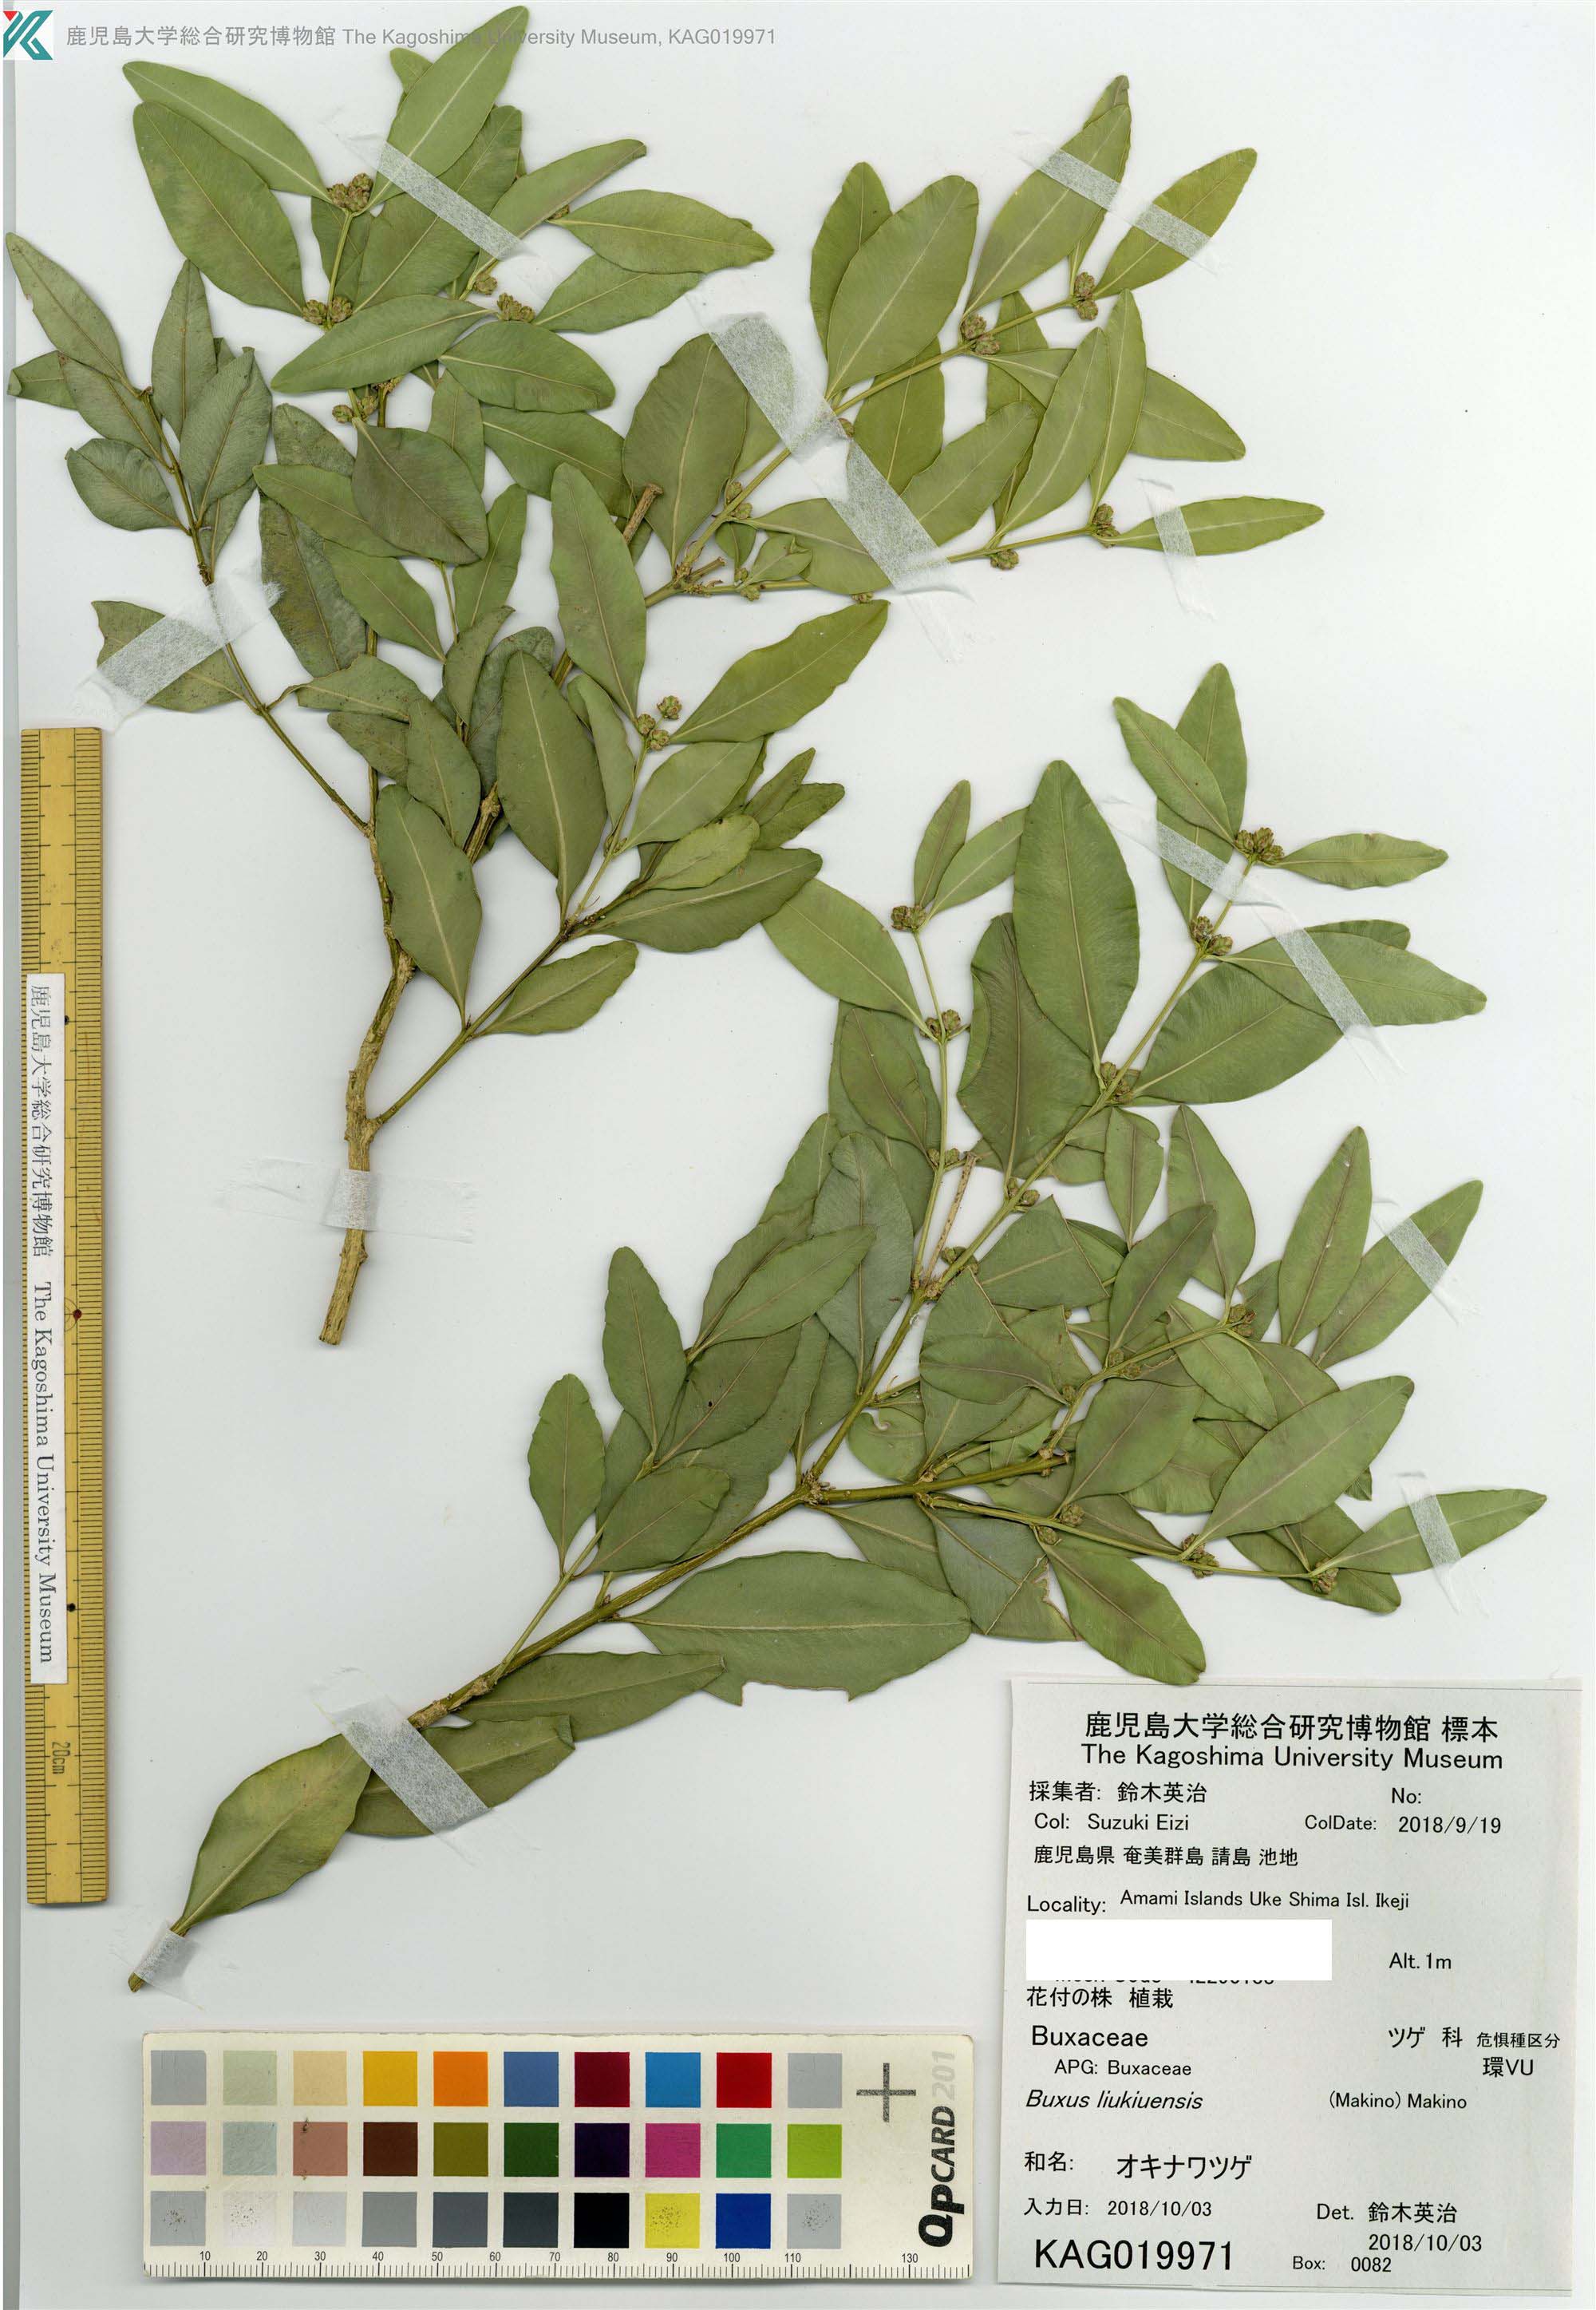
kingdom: Plantae
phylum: Tracheophyta
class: Magnoliopsida
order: Buxales
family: Buxaceae
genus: Buxus
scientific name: Buxus liukiuensis
